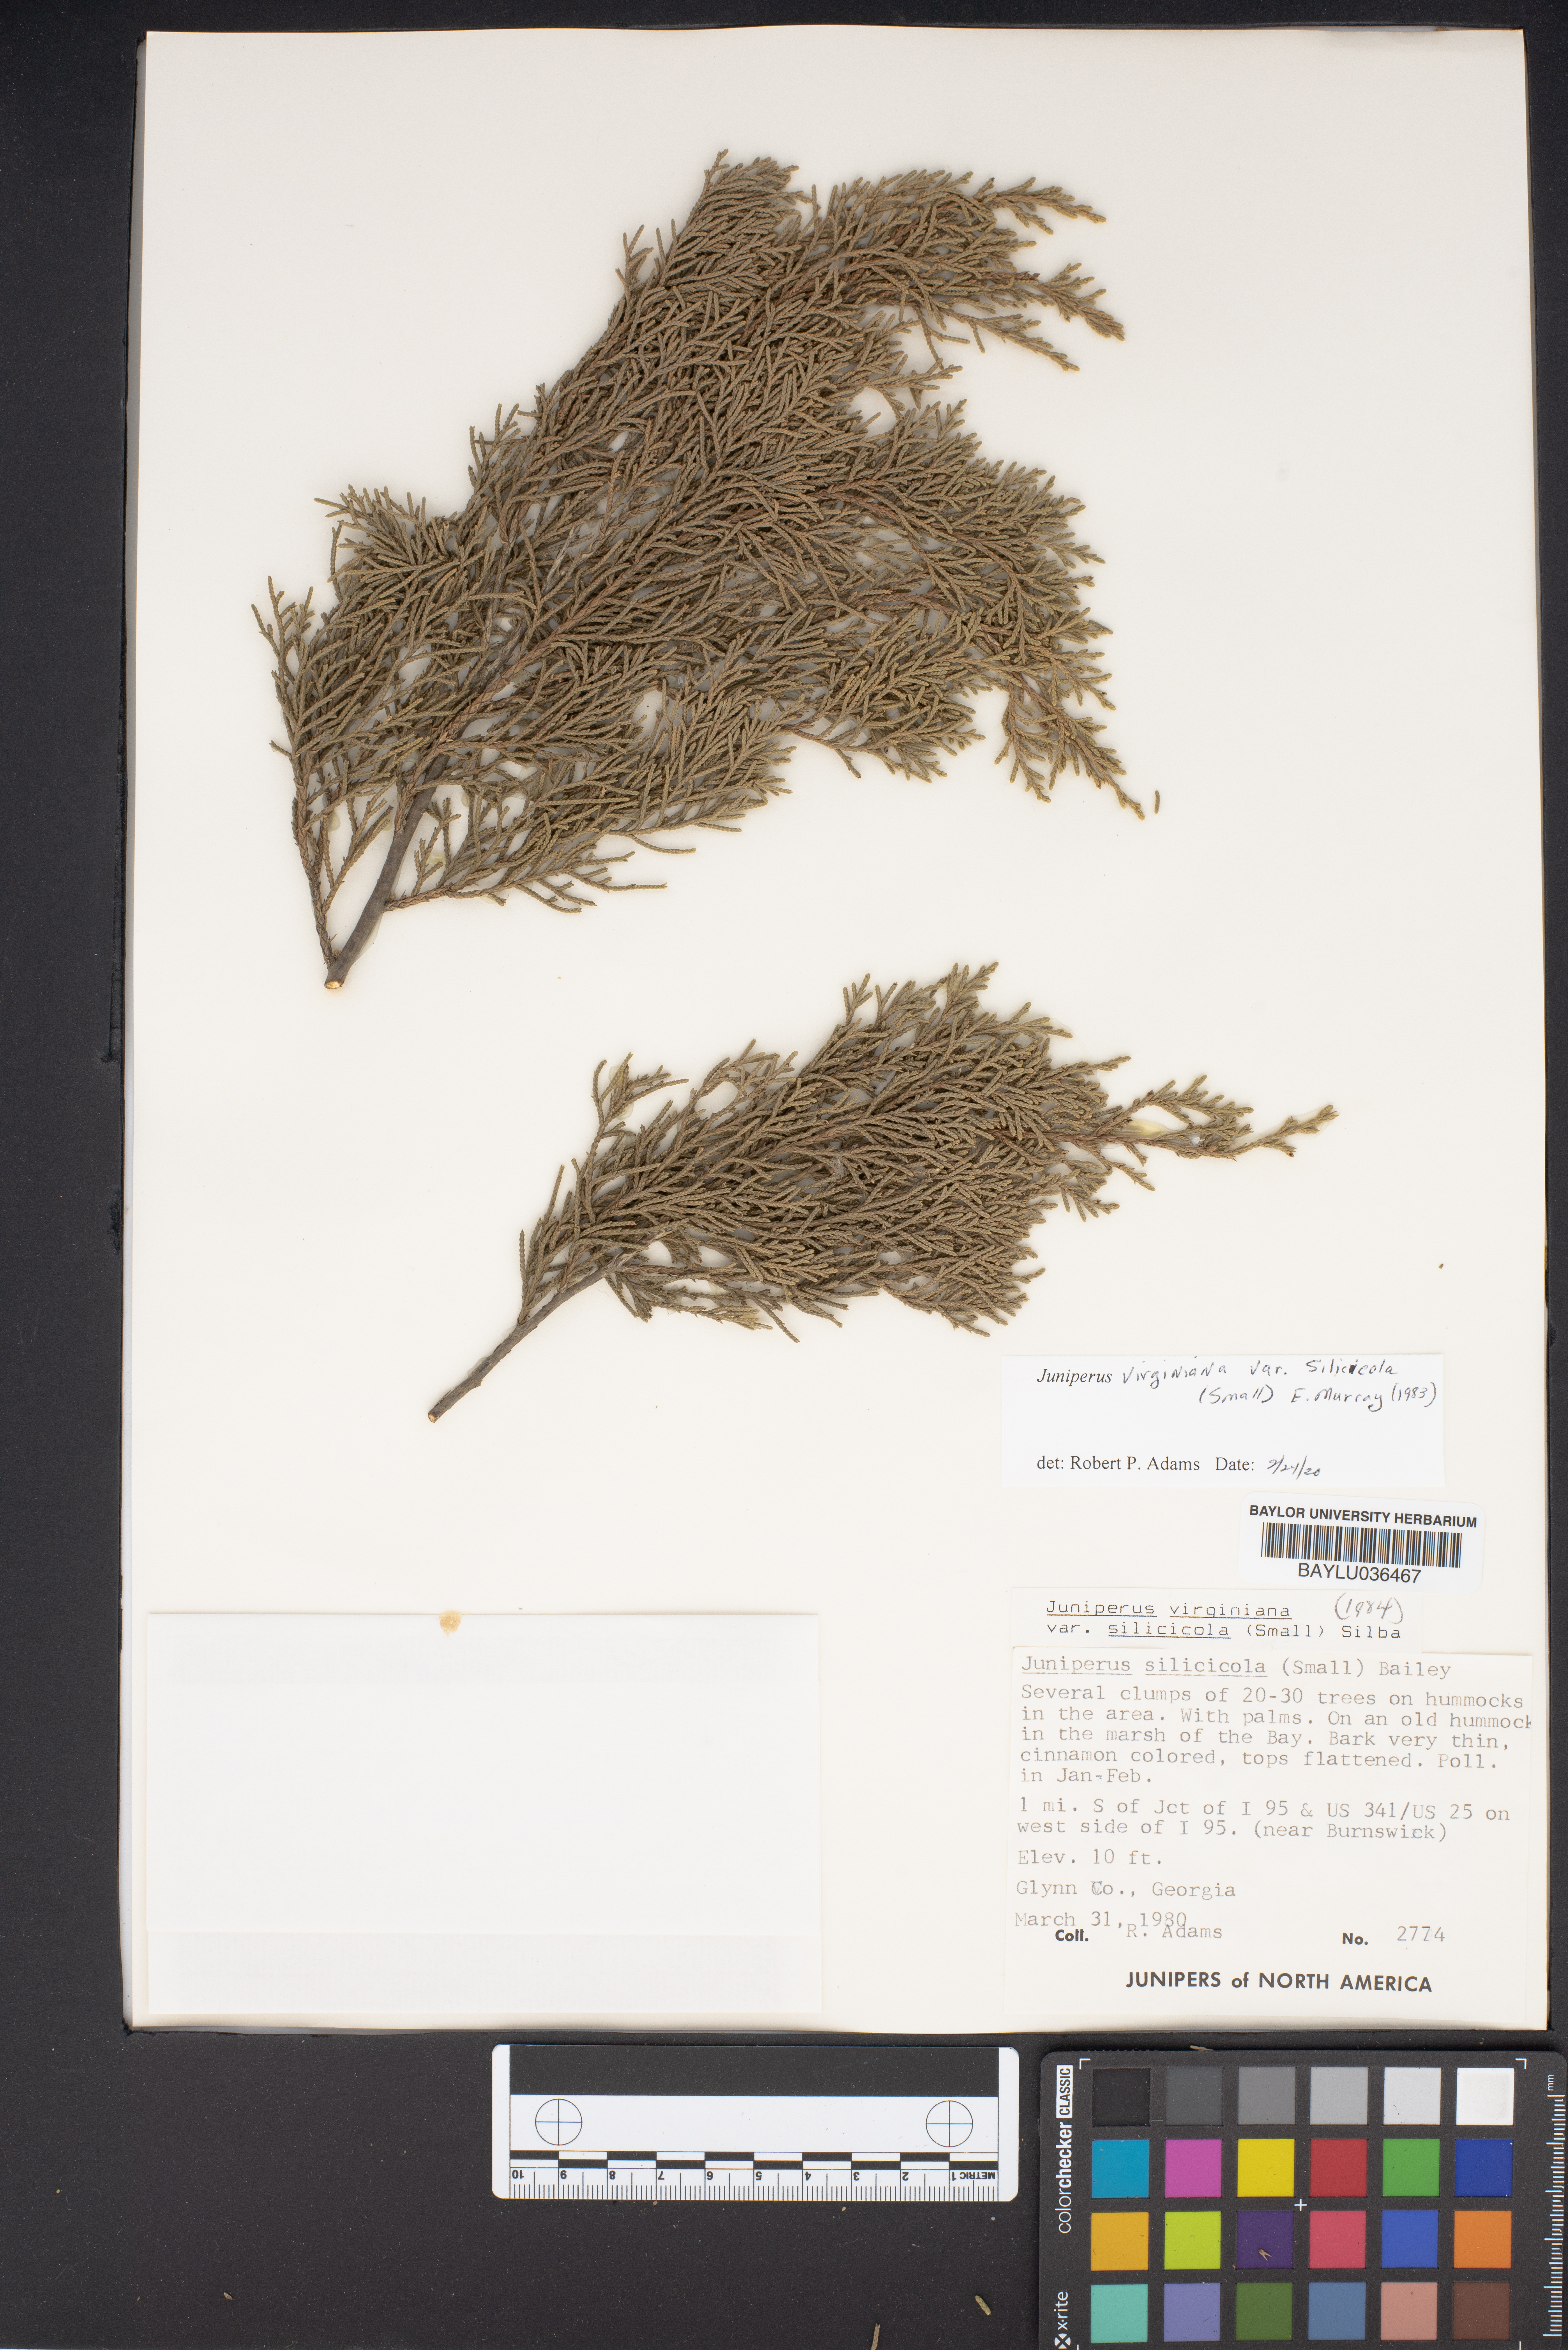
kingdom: Plantae
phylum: Tracheophyta
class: Pinopsida
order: Pinales
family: Cupressaceae
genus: Juniperus
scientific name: Juniperus virginiana
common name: Red juniper
